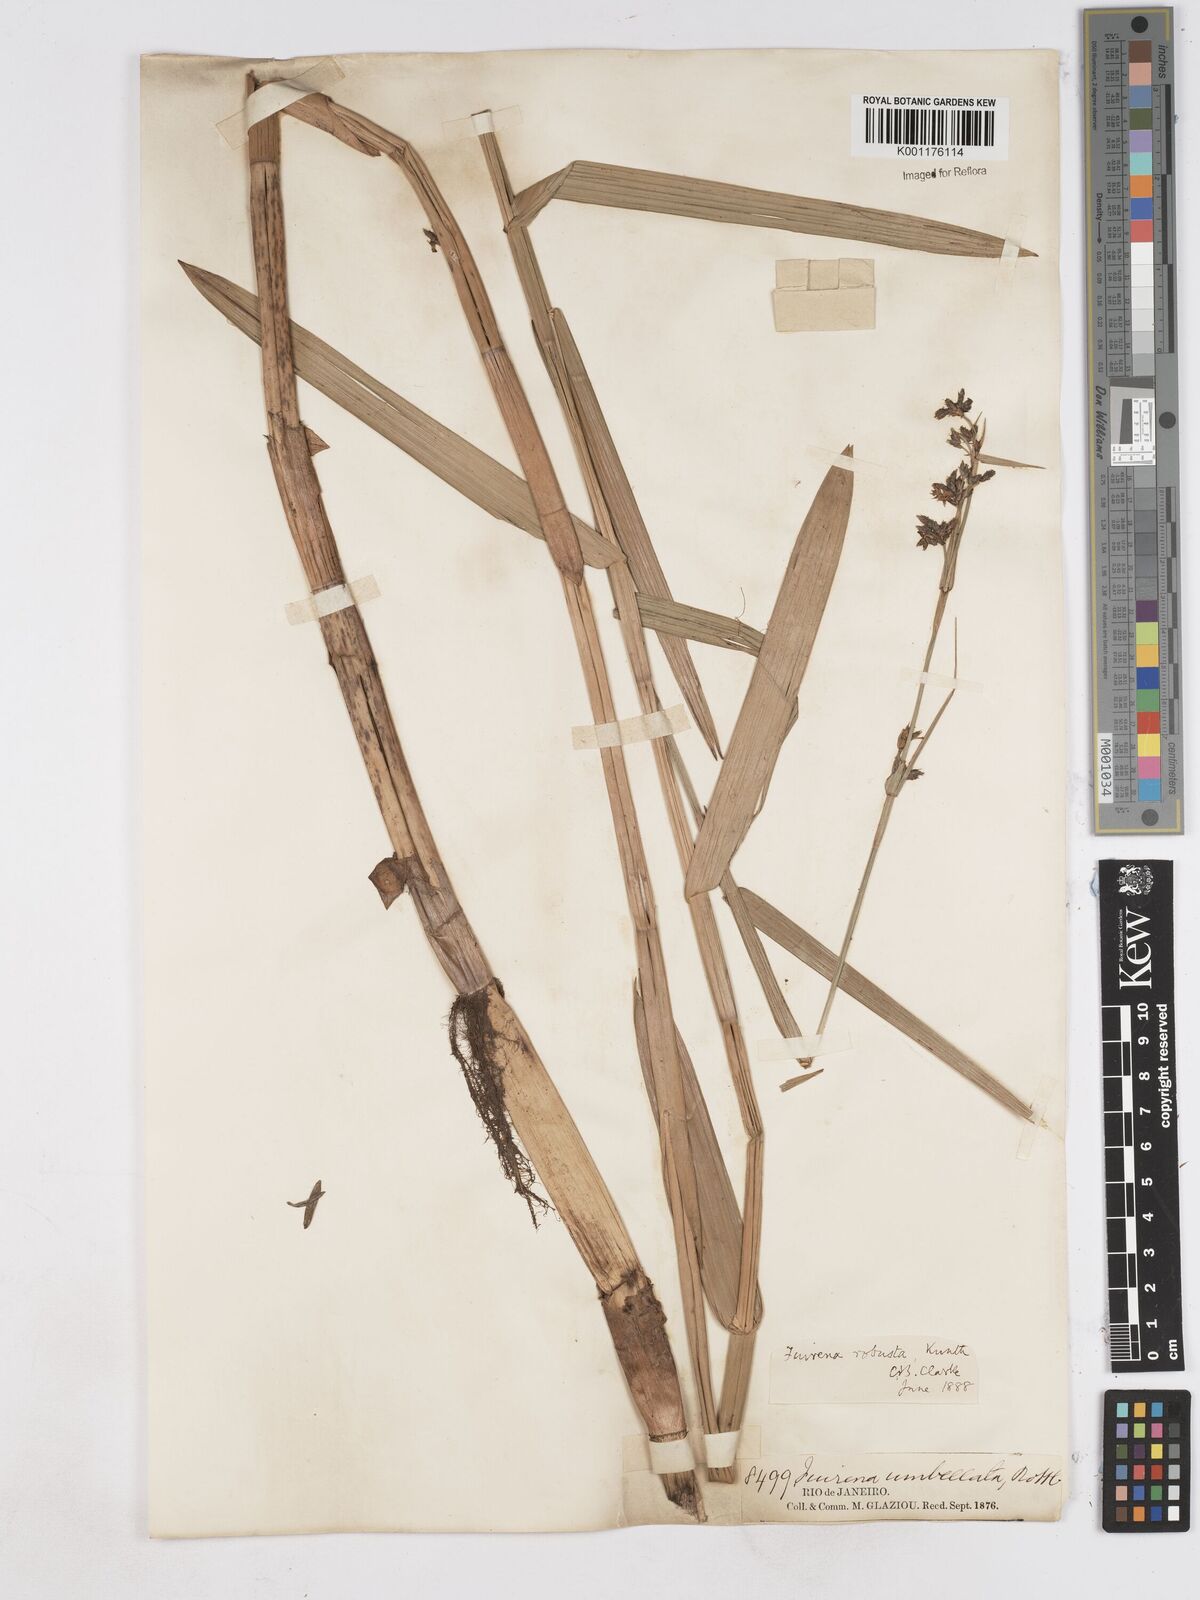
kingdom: Plantae
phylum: Tracheophyta
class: Liliopsida
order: Poales
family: Cyperaceae
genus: Fuirena
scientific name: Fuirena robusta
